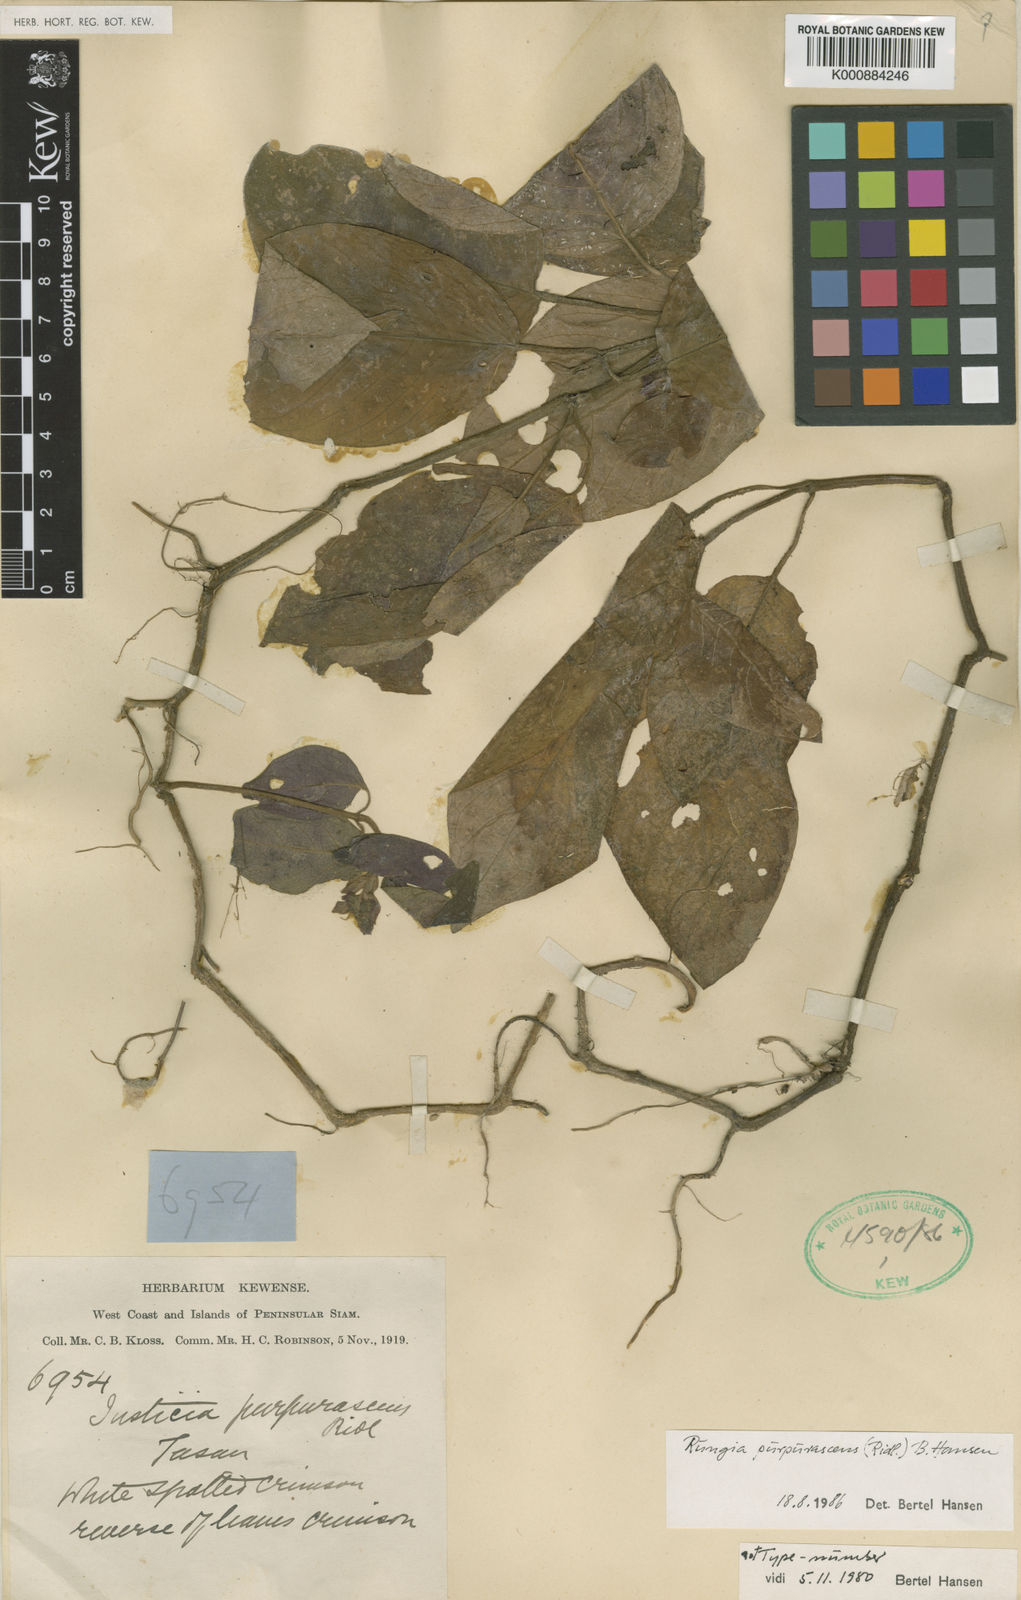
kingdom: Plantae
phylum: Tracheophyta
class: Magnoliopsida
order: Lamiales
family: Acanthaceae
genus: Rungia
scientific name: Rungia purpurascens
